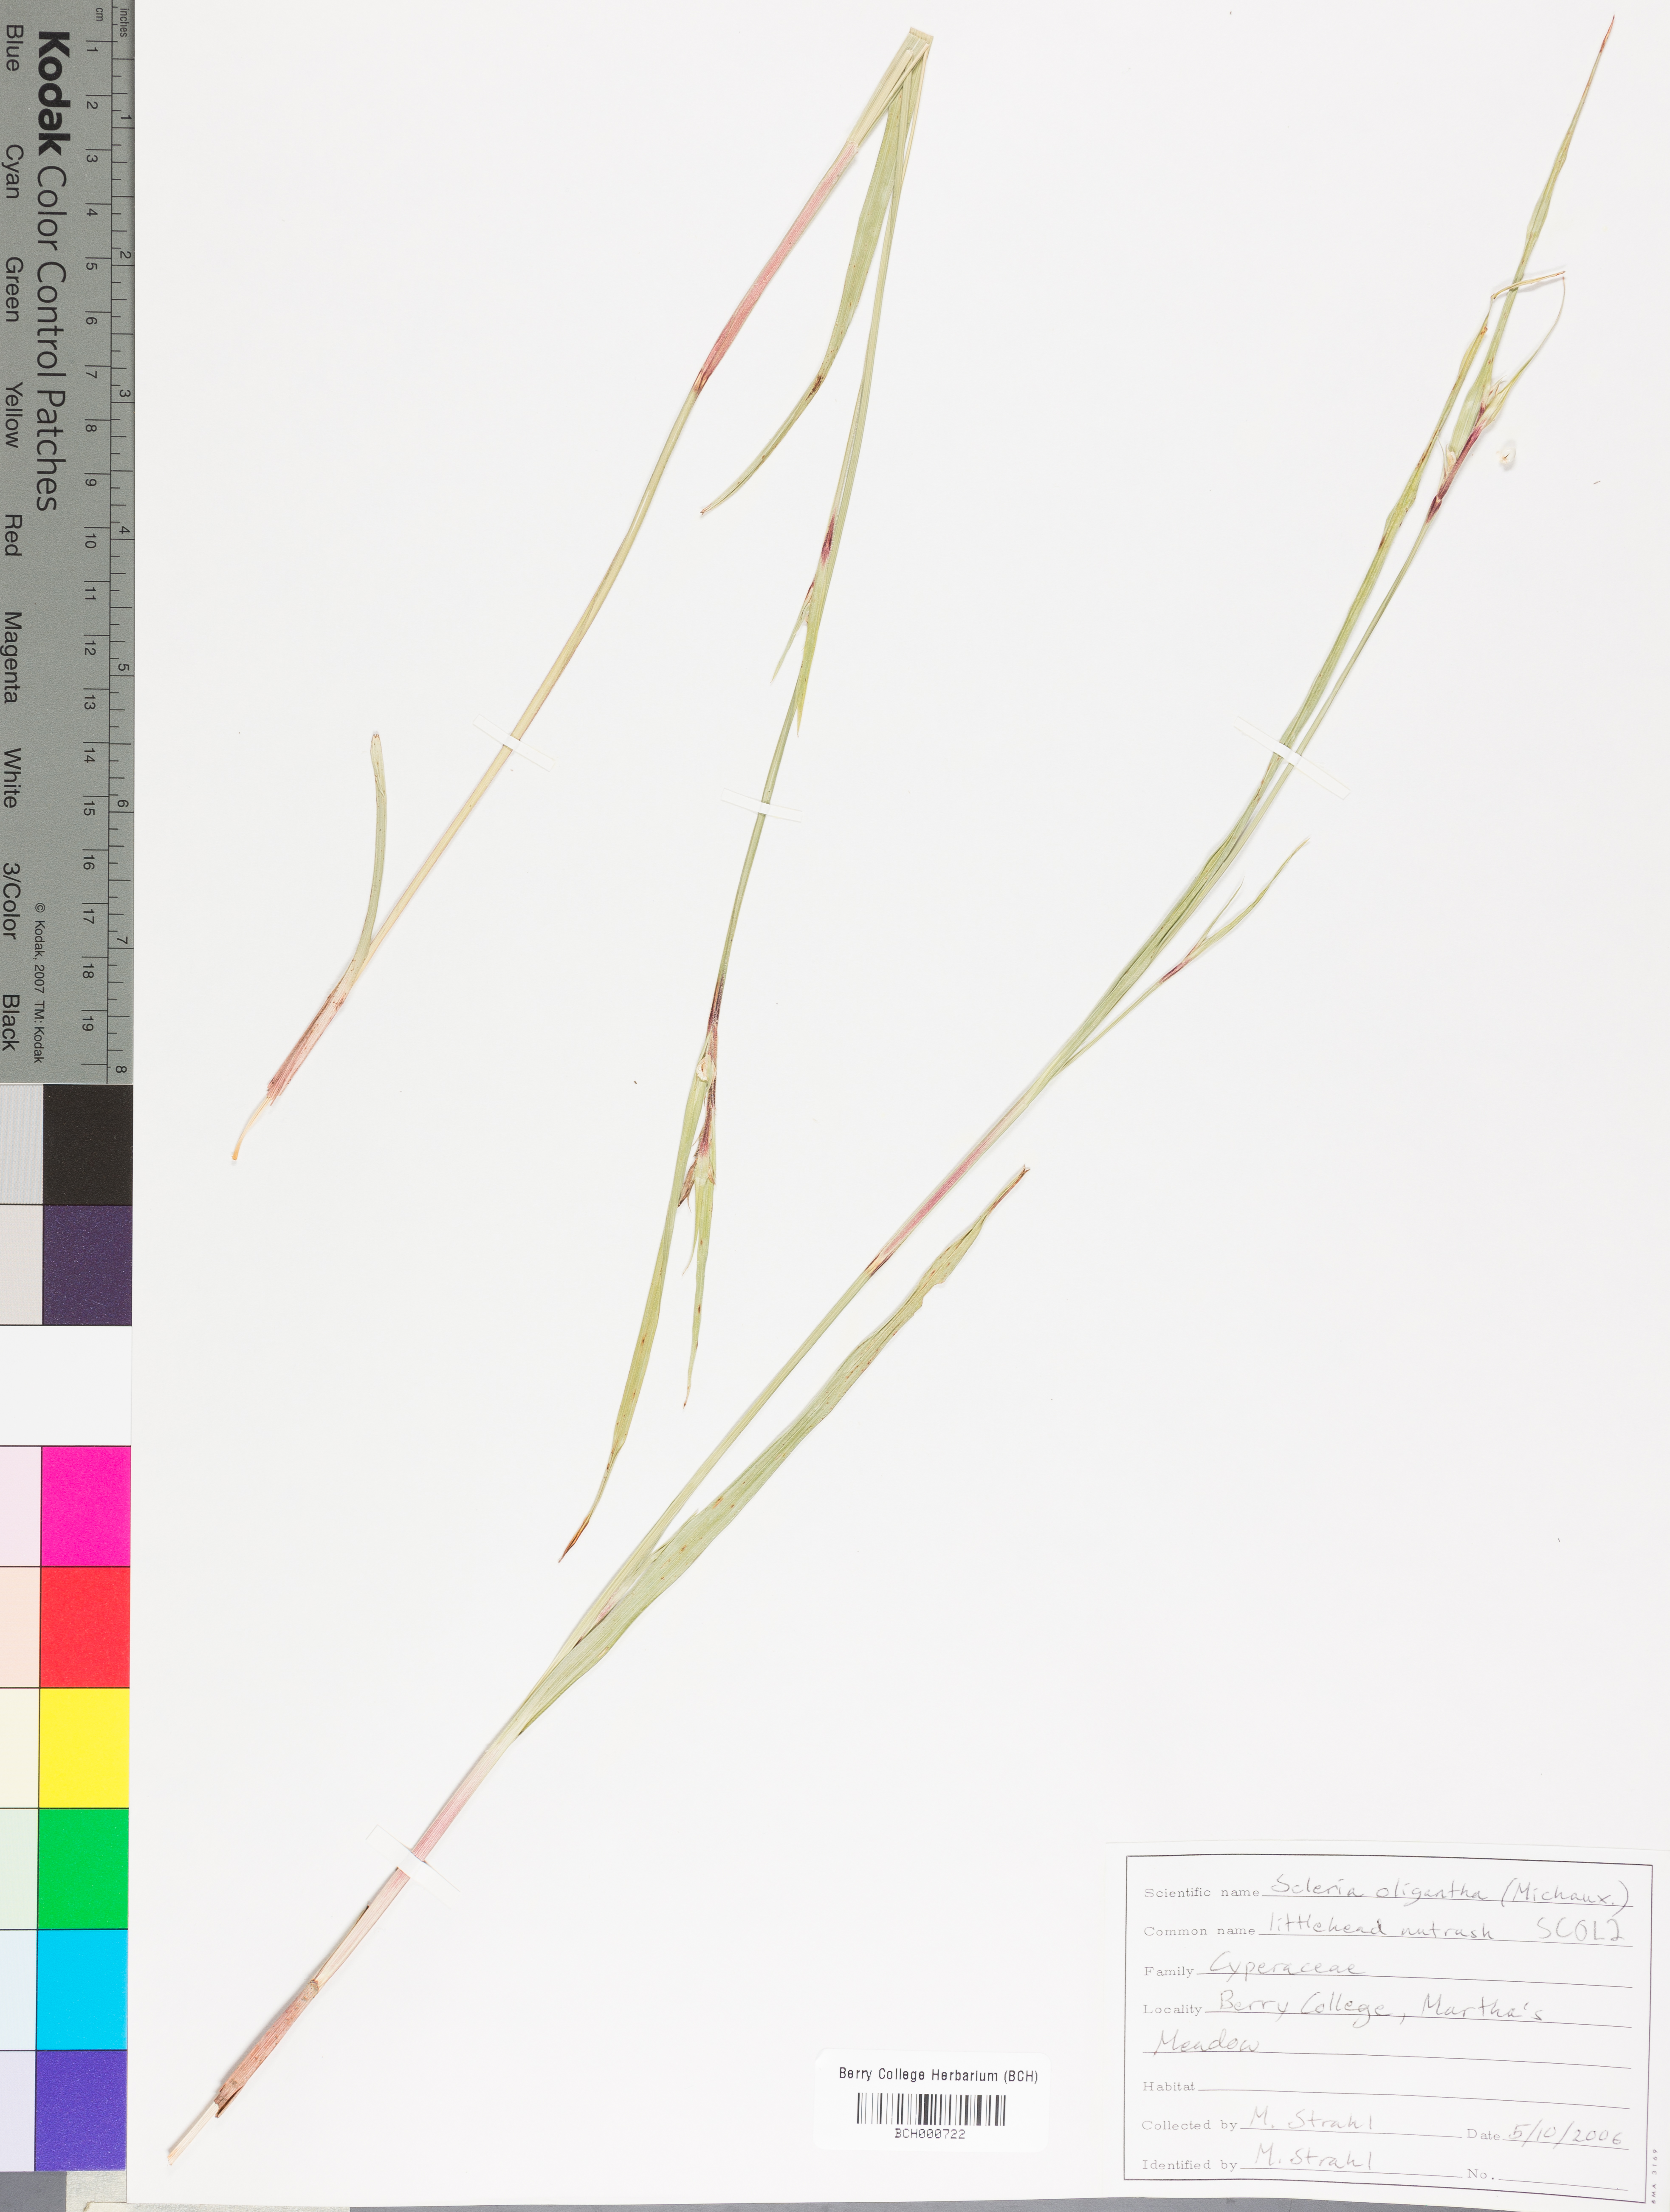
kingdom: Plantae
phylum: Tracheophyta
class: Liliopsida
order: Poales
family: Cyperaceae
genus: Scleria
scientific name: Scleria oligantha
